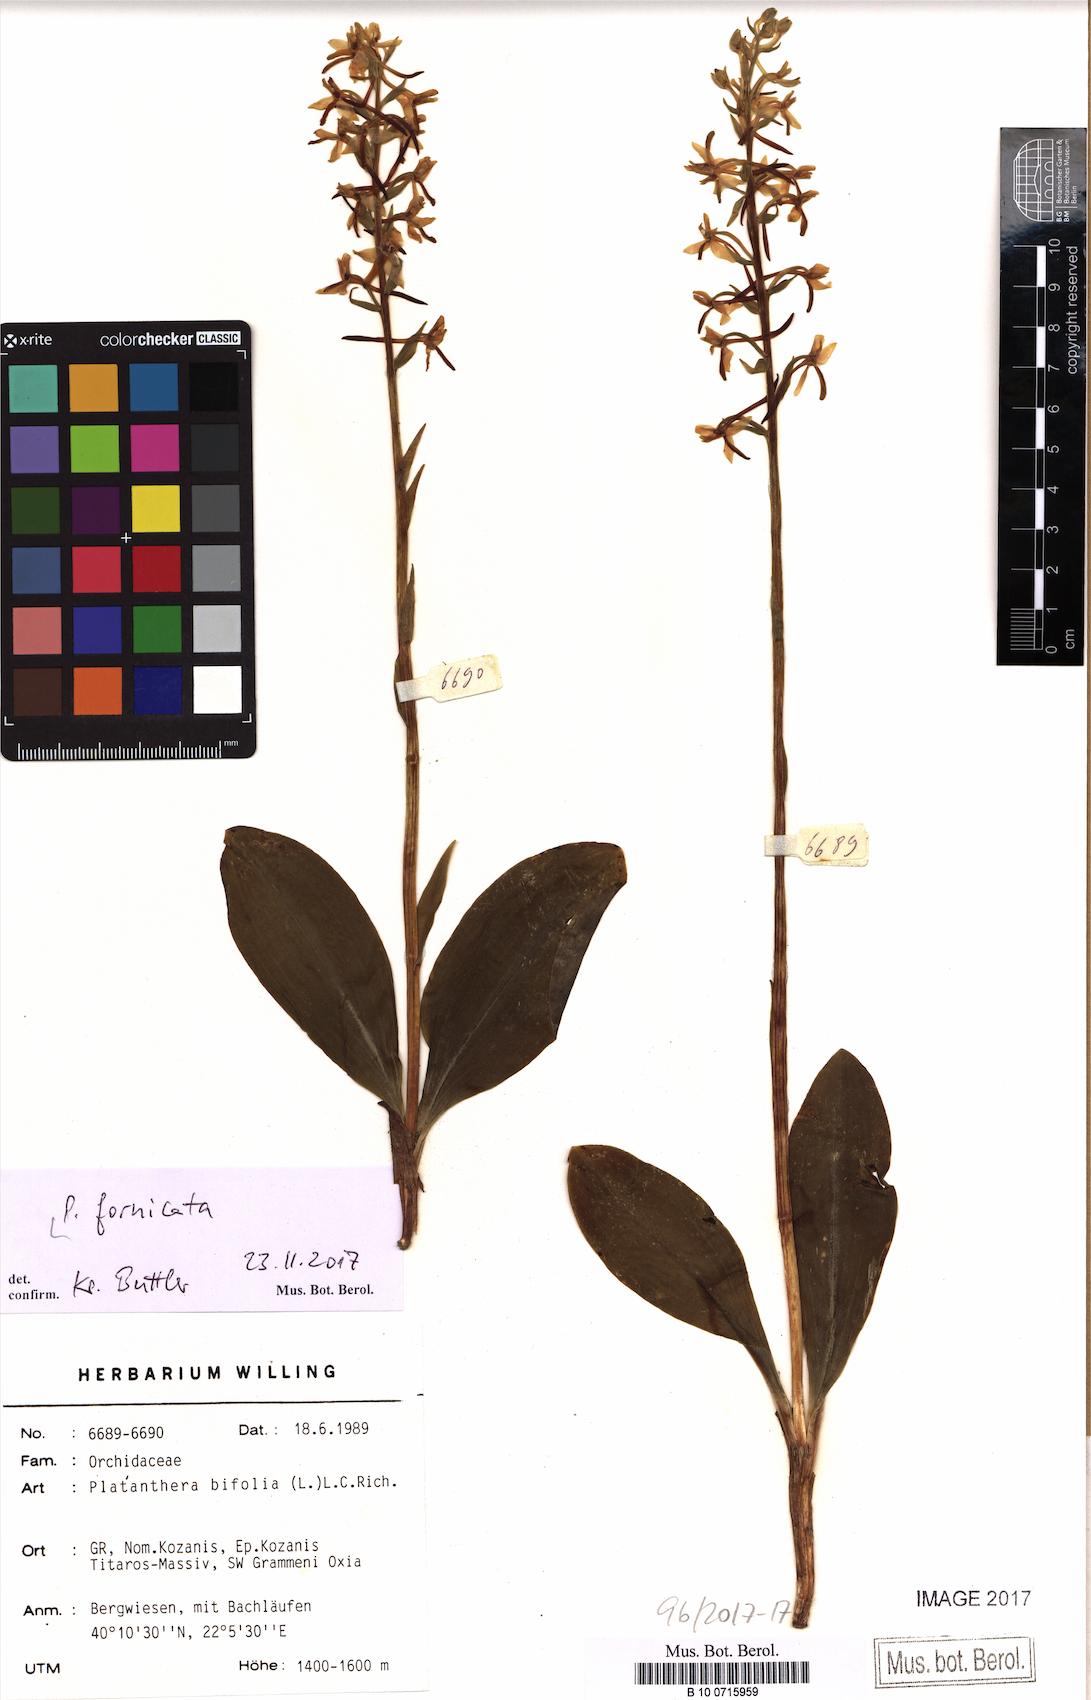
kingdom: Plantae
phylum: Tracheophyta
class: Liliopsida
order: Asparagales
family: Orchidaceae
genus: Platanthera
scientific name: Platanthera bifolia
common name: Lesser butterfly-orchid
